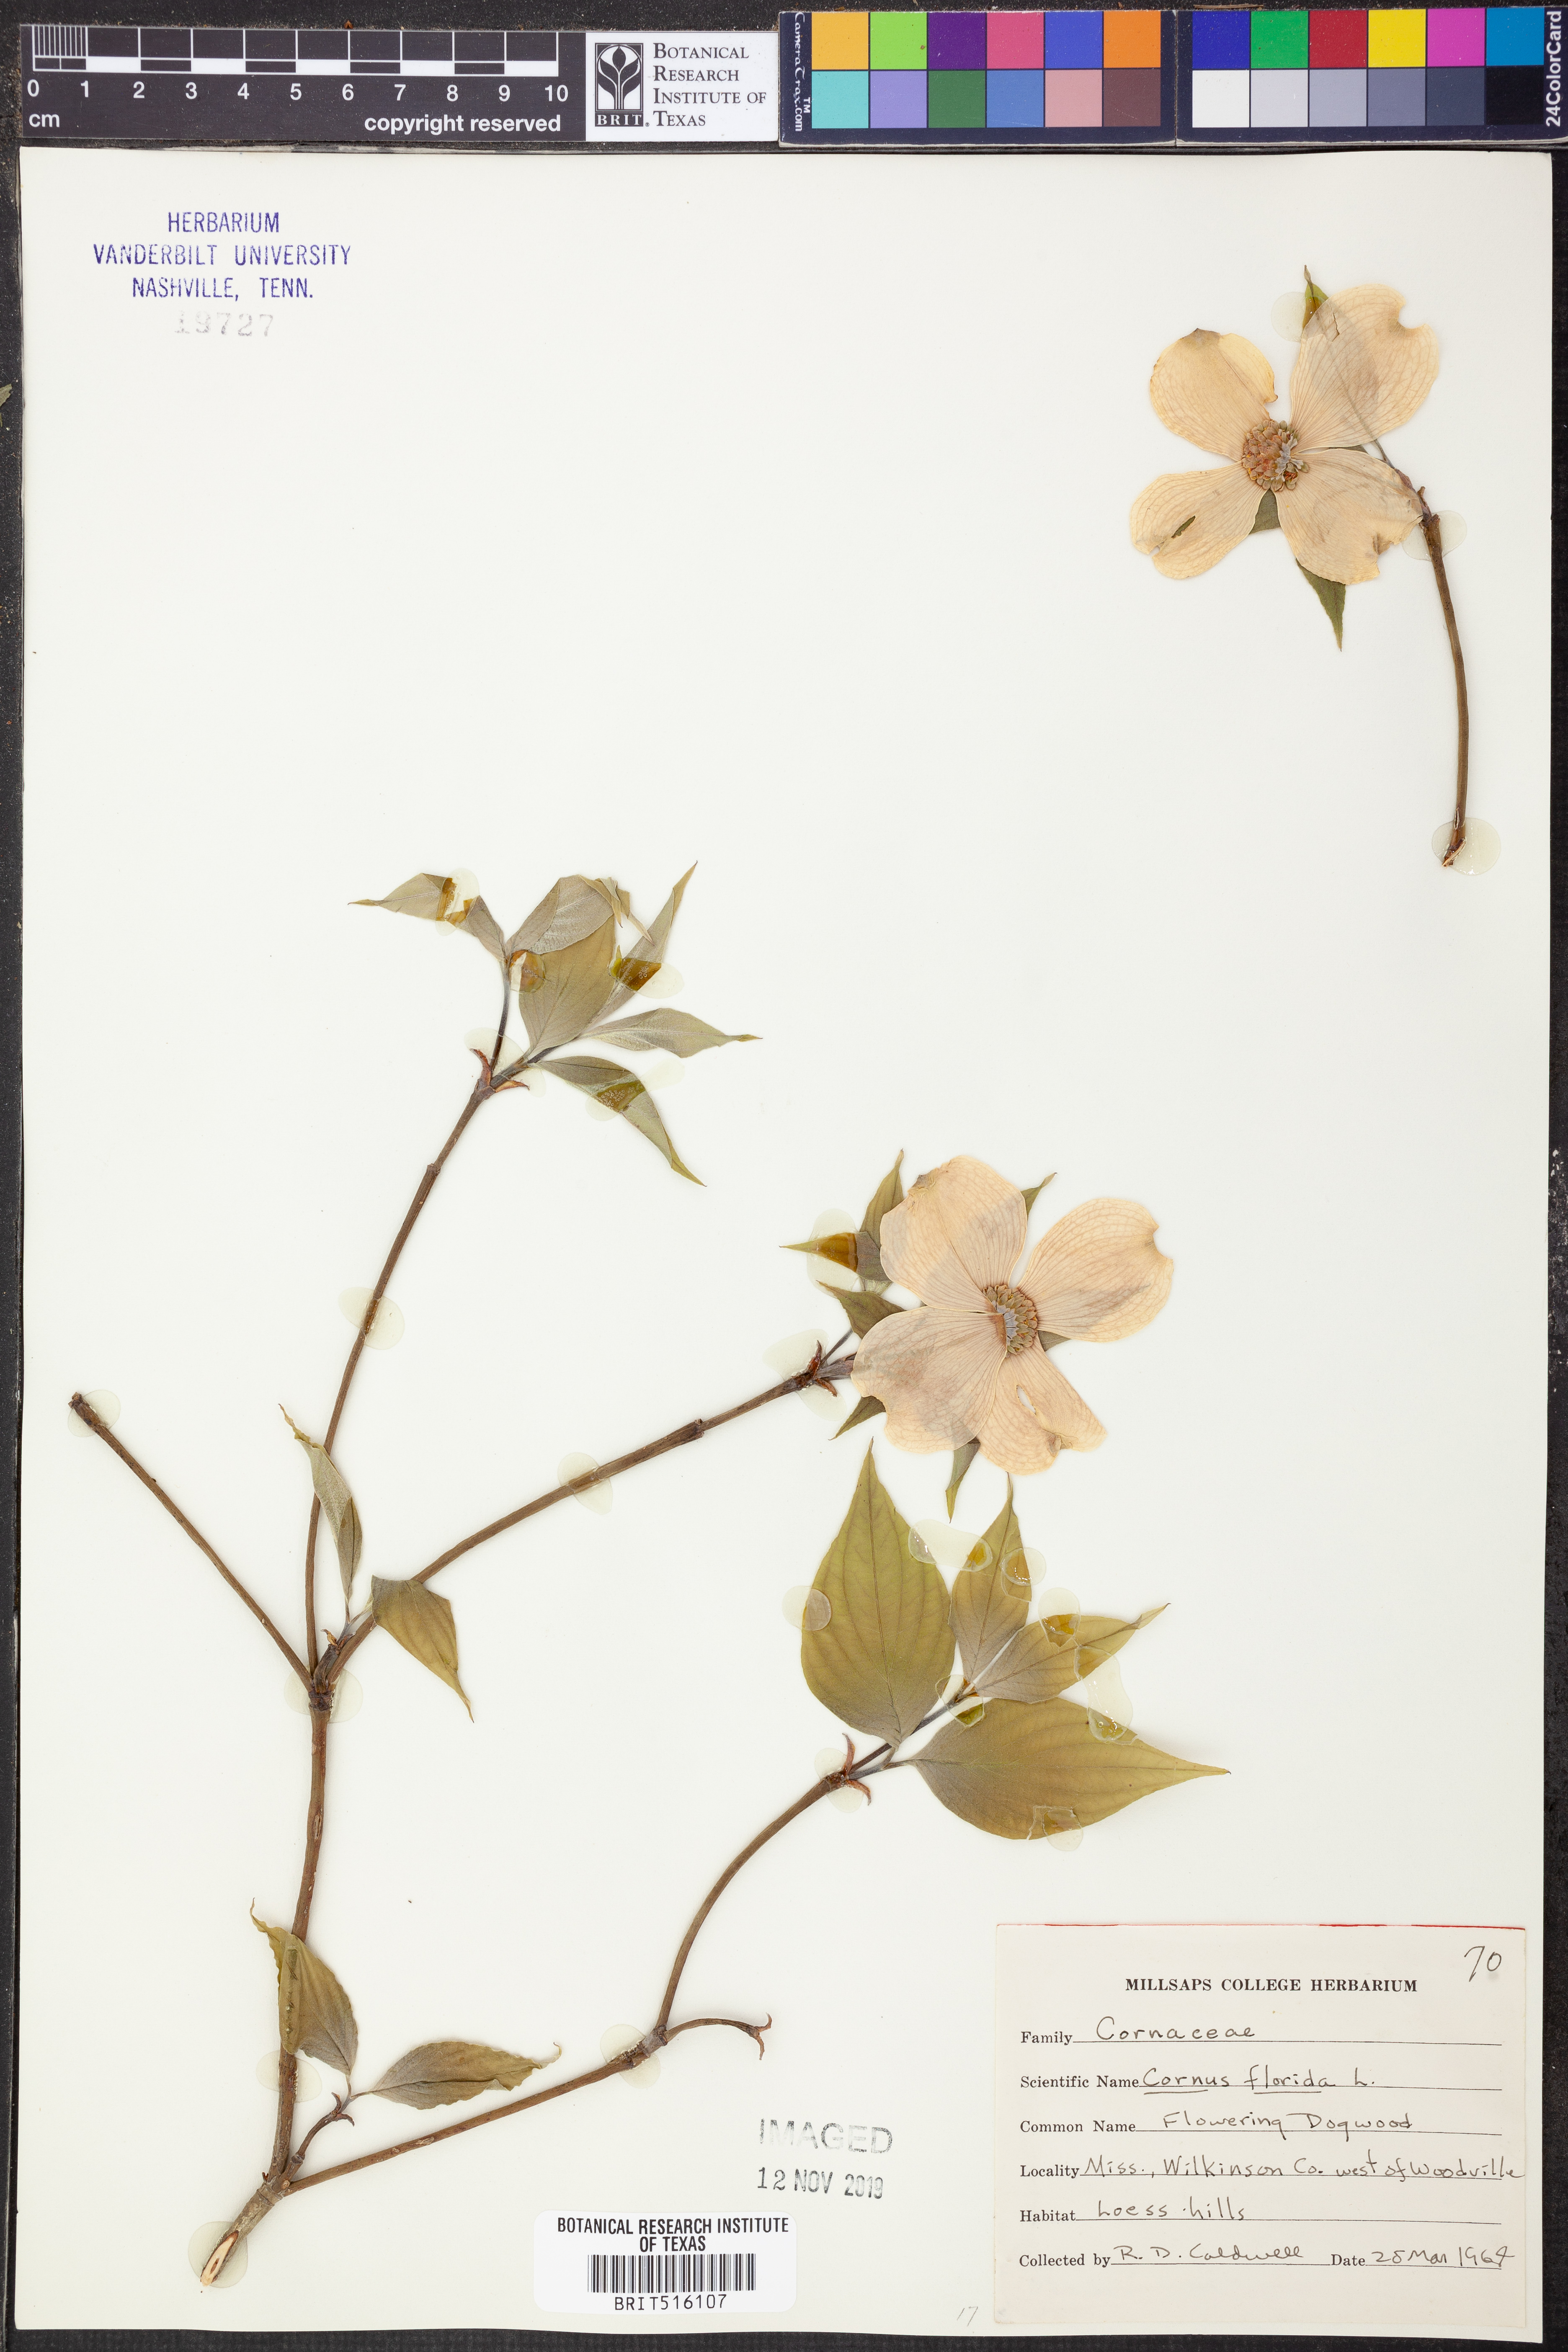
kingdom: Plantae
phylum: Tracheophyta
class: Magnoliopsida
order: Cornales
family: Cornaceae
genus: Cornus
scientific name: Cornus florida
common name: Flowering dogwood
